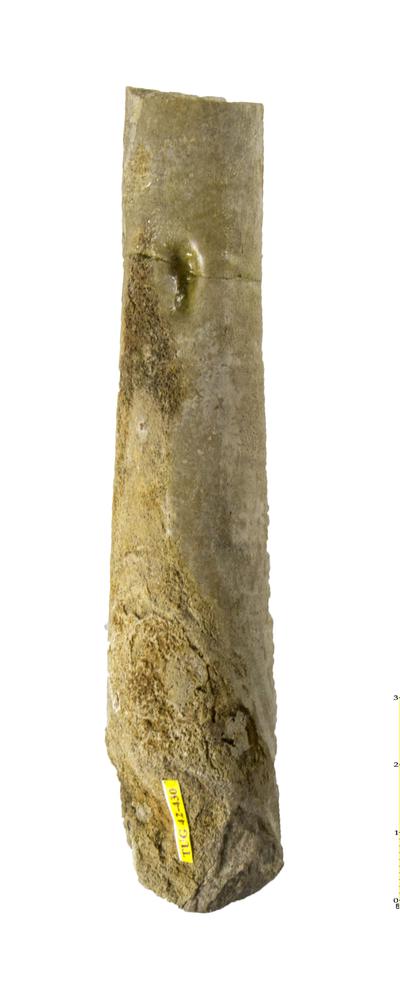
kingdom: Animalia
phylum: Mollusca
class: Cephalopoda
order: Orthocerida
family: Orthoceratidae
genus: Orthoceras
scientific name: Orthoceras regulare
